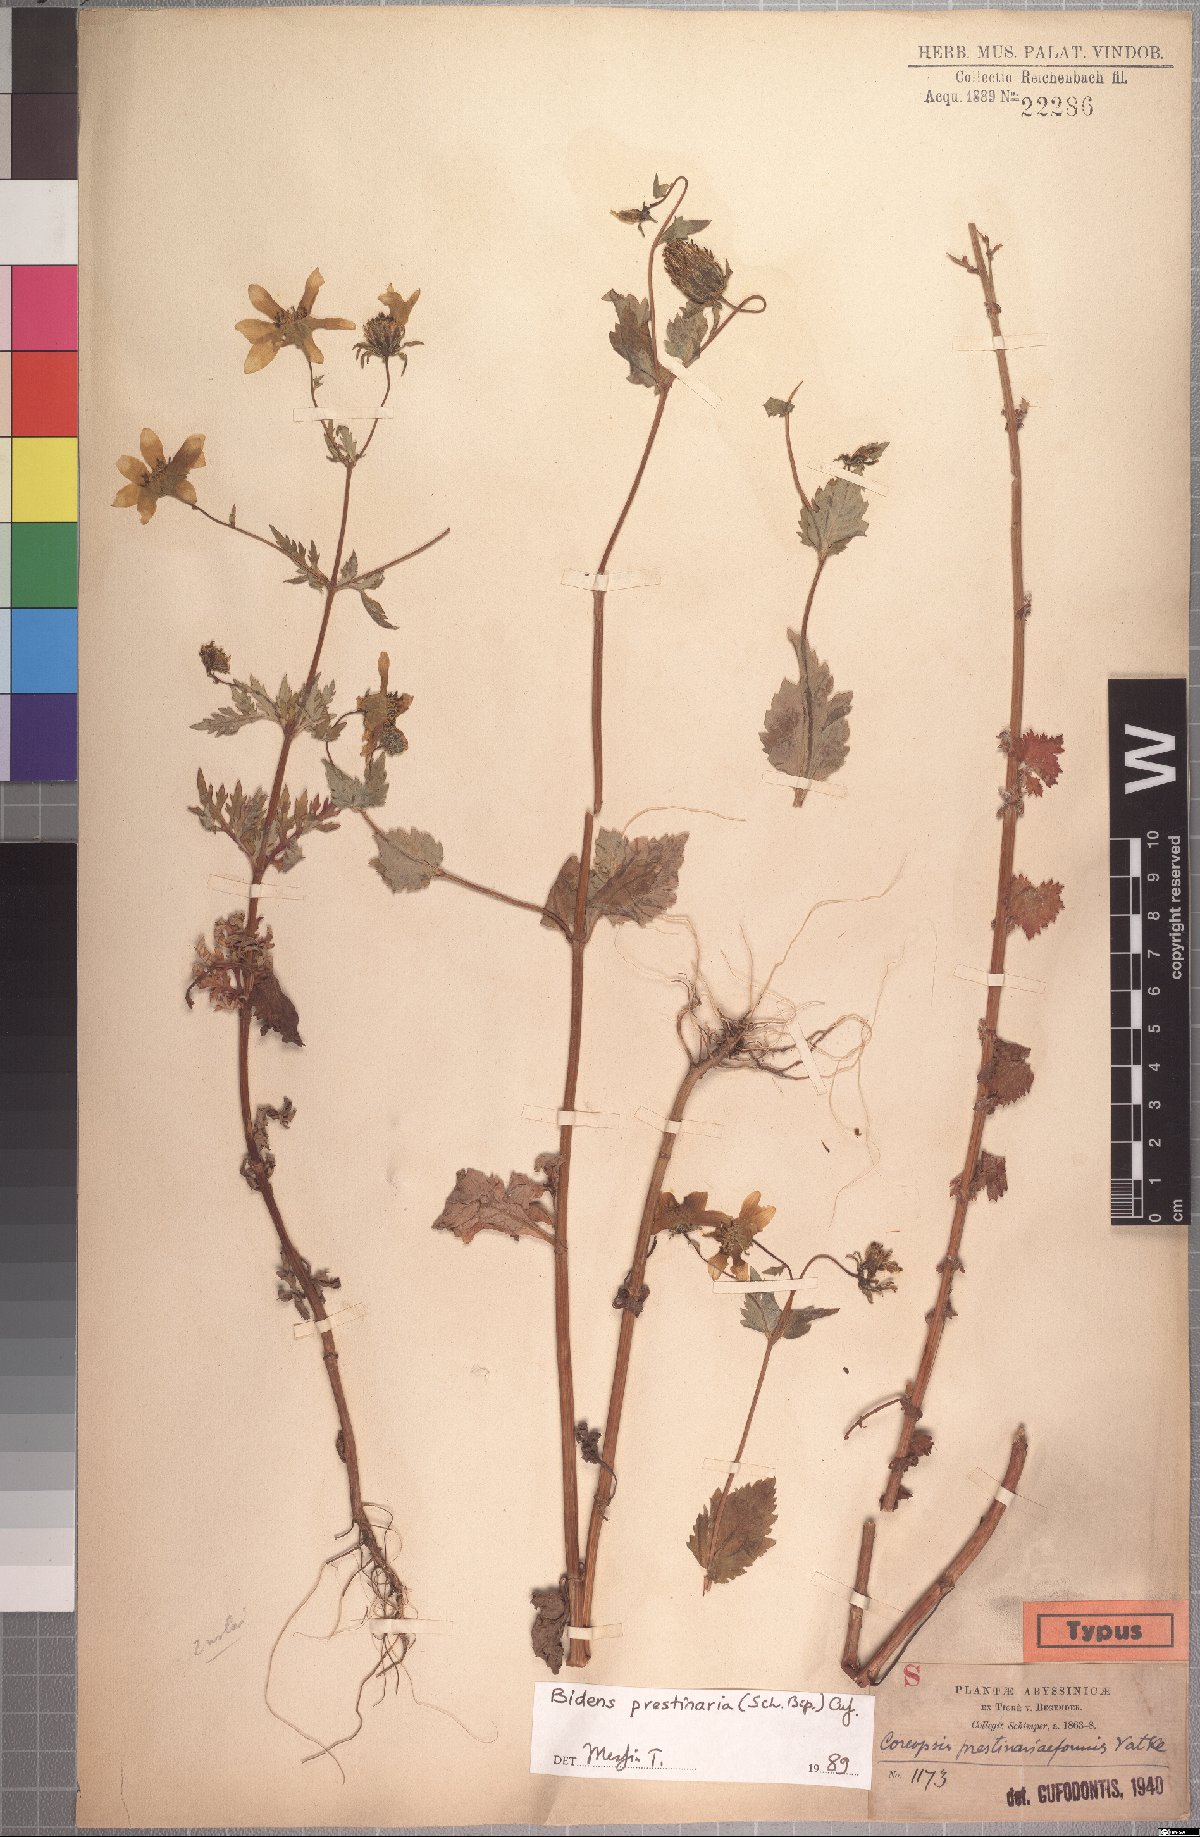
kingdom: Plantae
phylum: Tracheophyta
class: Magnoliopsida
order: Asterales
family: Asteraceae
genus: Bidens
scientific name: Bidens prestinaria
